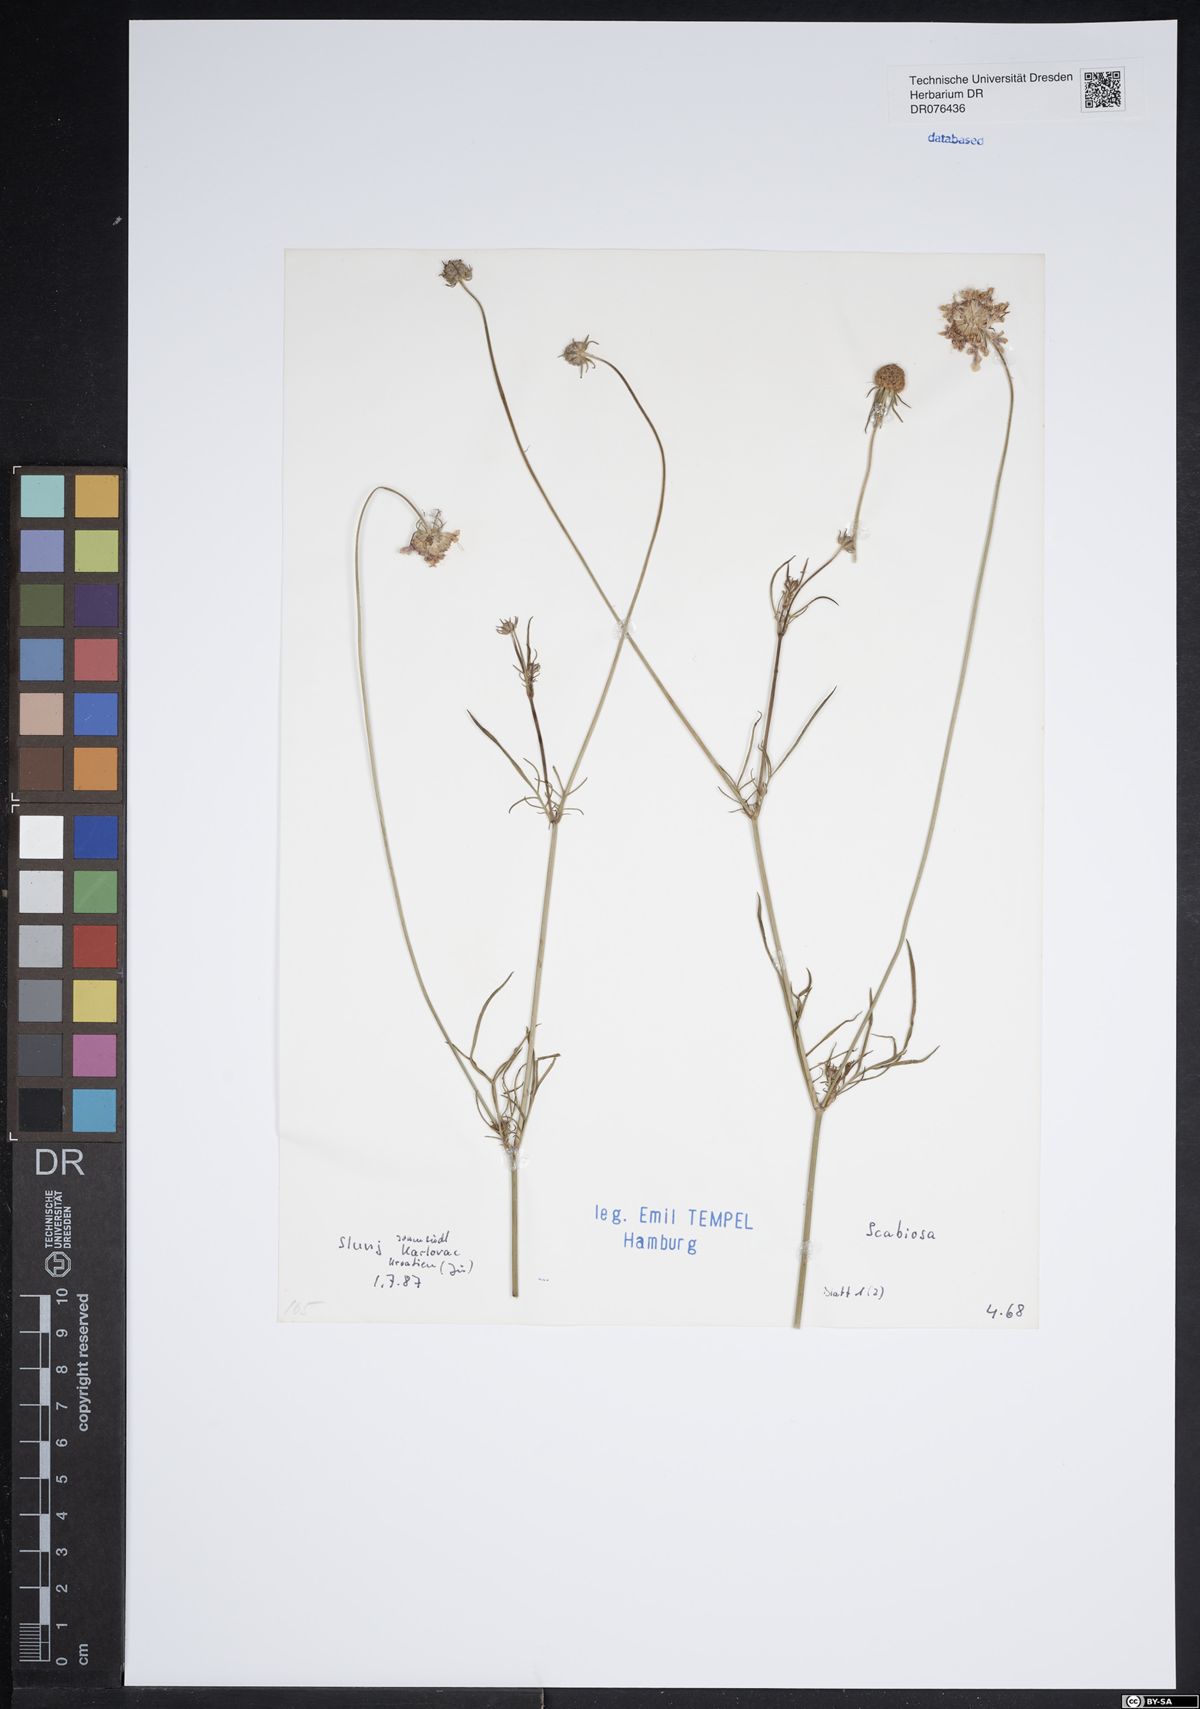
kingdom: Plantae
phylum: Tracheophyta
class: Magnoliopsida
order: Dipsacales
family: Caprifoliaceae
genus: Scabiosa
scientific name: Scabiosa
